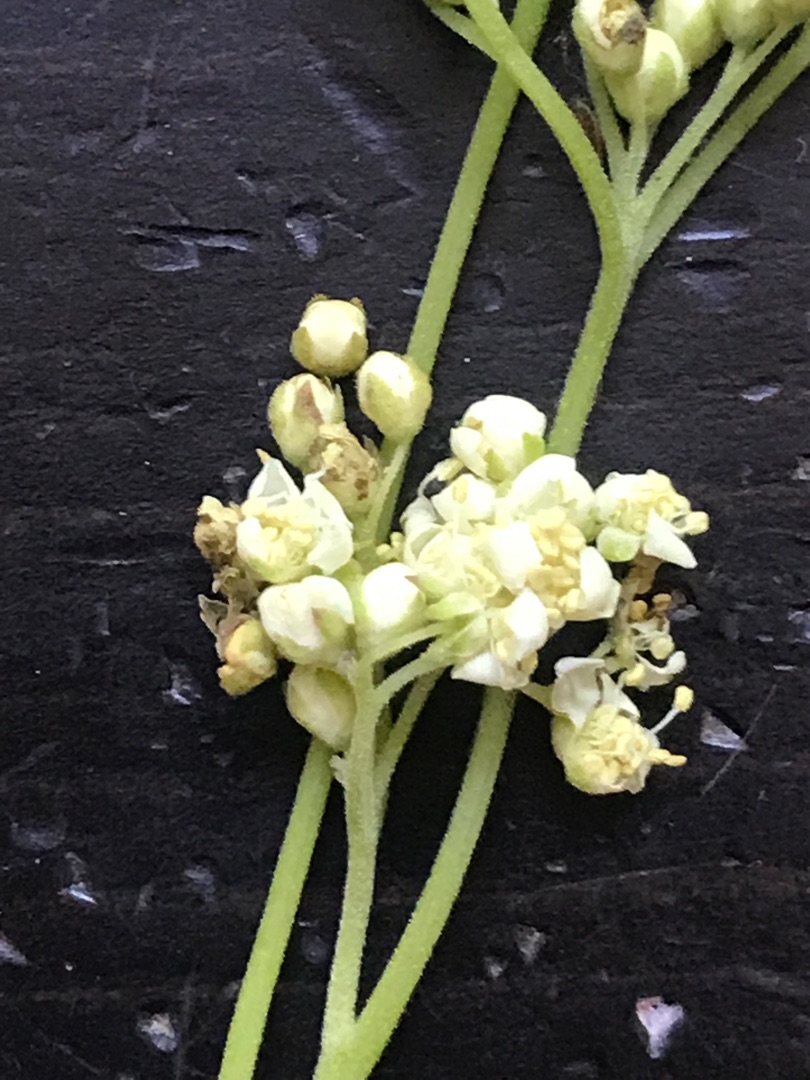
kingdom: Plantae
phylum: Tracheophyta
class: Magnoliopsida
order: Rosales
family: Rosaceae
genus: Filipendula
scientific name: Filipendula ulmaria
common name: Almindelig mjødurt
